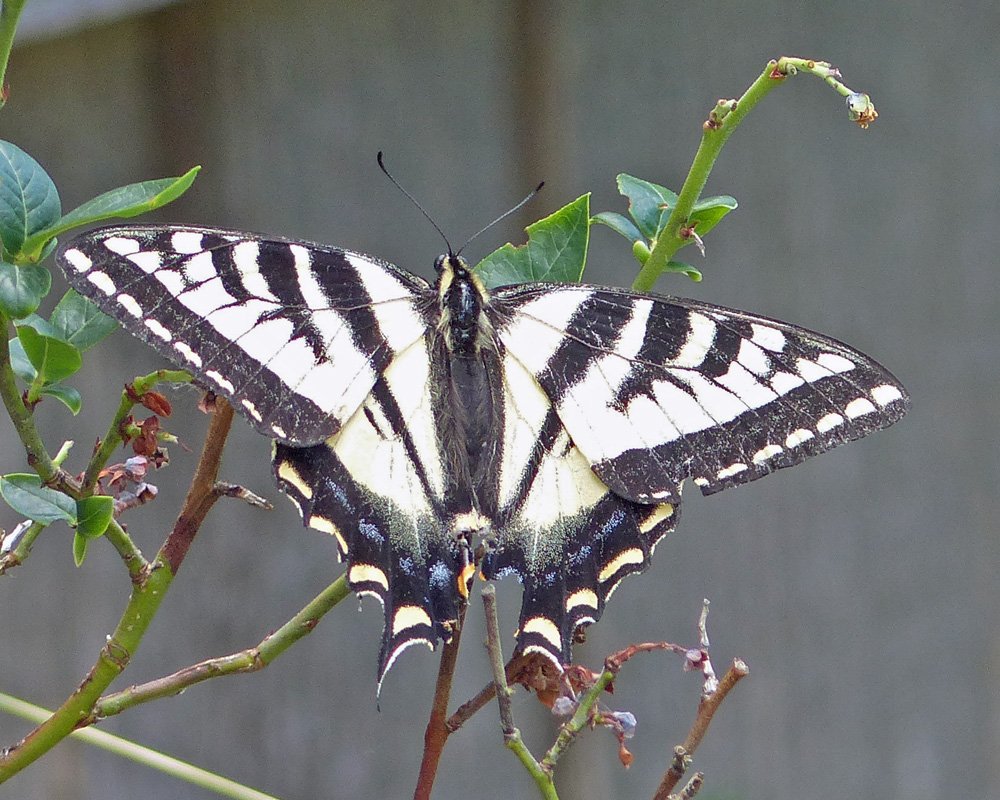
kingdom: Animalia
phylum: Arthropoda
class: Insecta
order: Lepidoptera
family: Papilionidae
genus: Pterourus
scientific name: Pterourus eurymedon
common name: Pale Swallowtail
